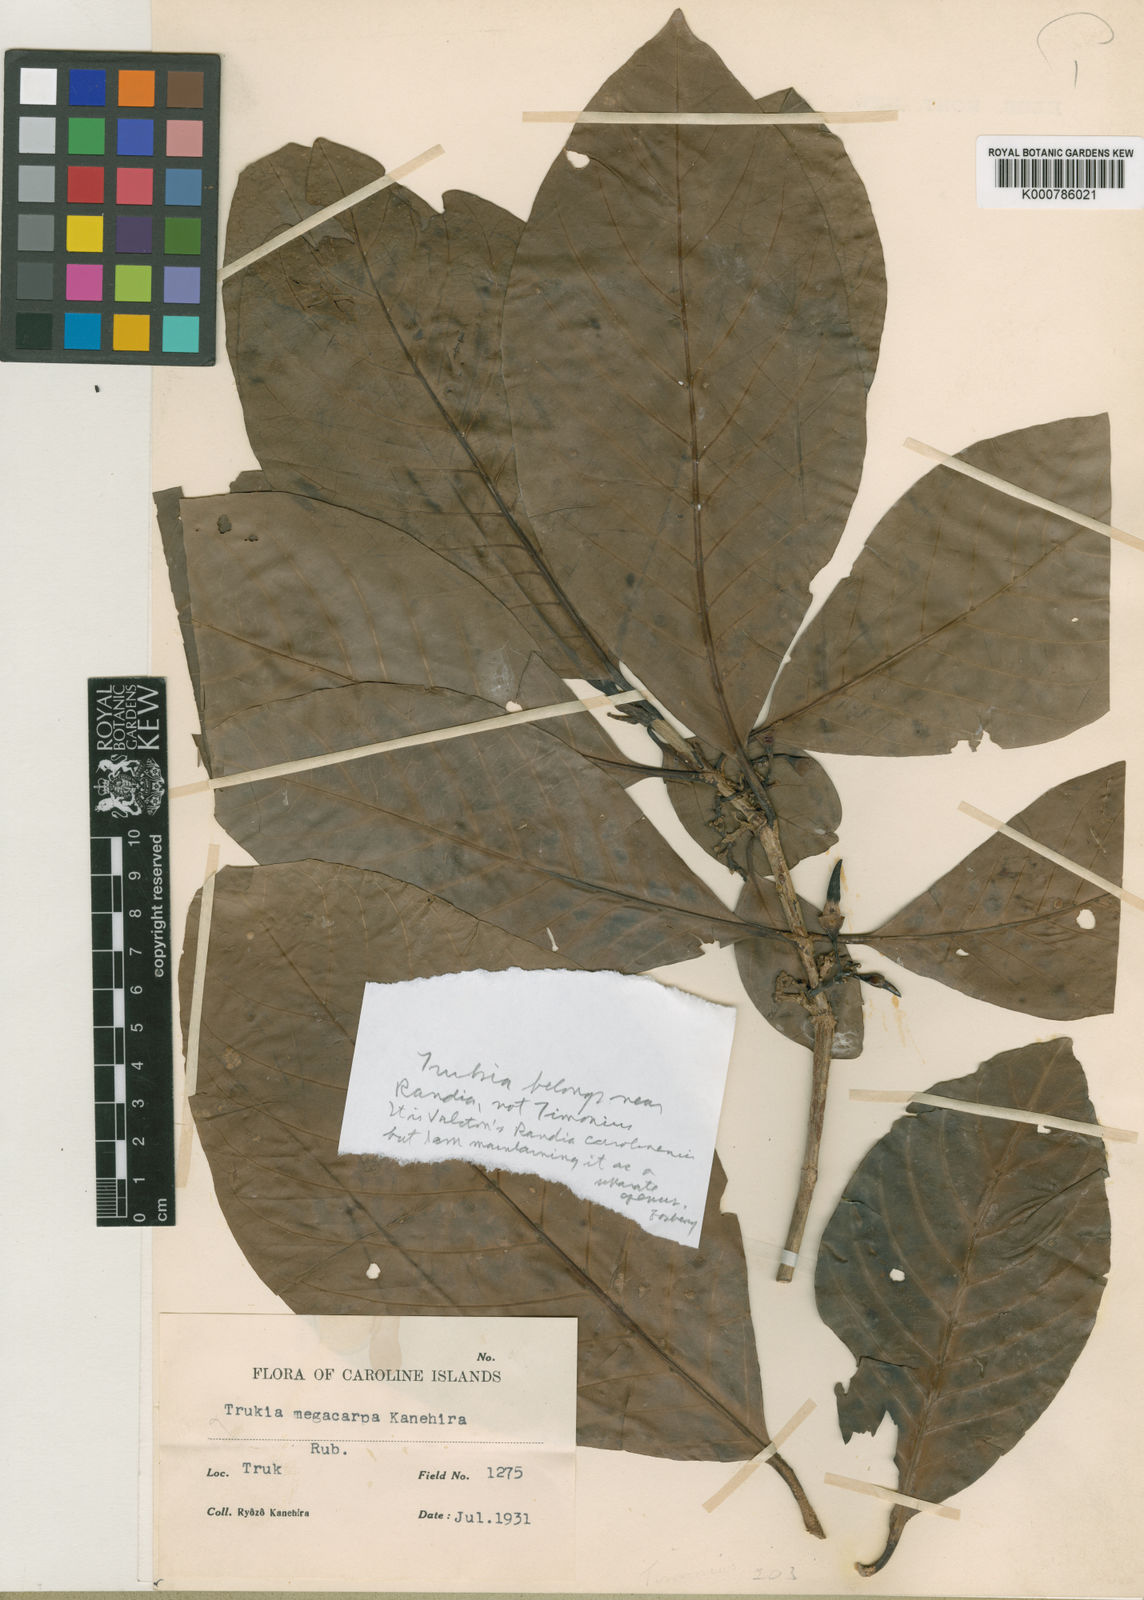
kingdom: Plantae
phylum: Tracheophyta
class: Magnoliopsida
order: Gentianales
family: Rubiaceae
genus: Atractocarpus
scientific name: Atractocarpus carolinensis
